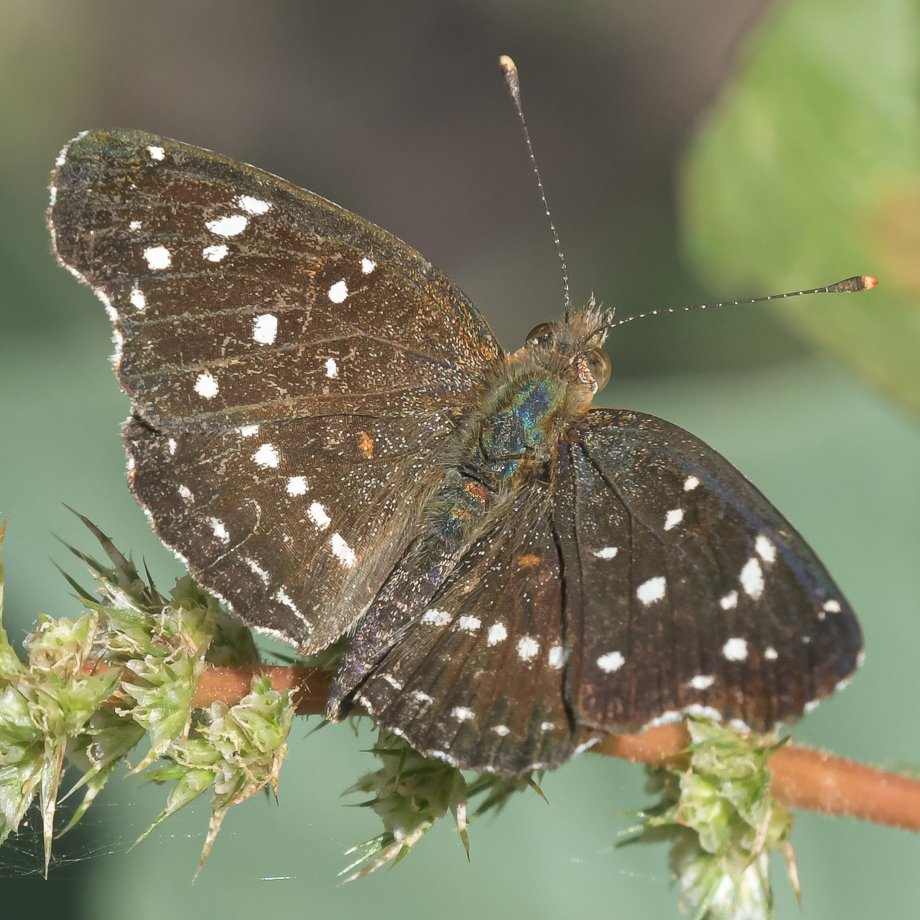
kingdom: Animalia
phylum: Arthropoda
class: Insecta
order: Lepidoptera
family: Nymphalidae
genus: Anthanassa
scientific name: Anthanassa texana
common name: Texan Crescent
